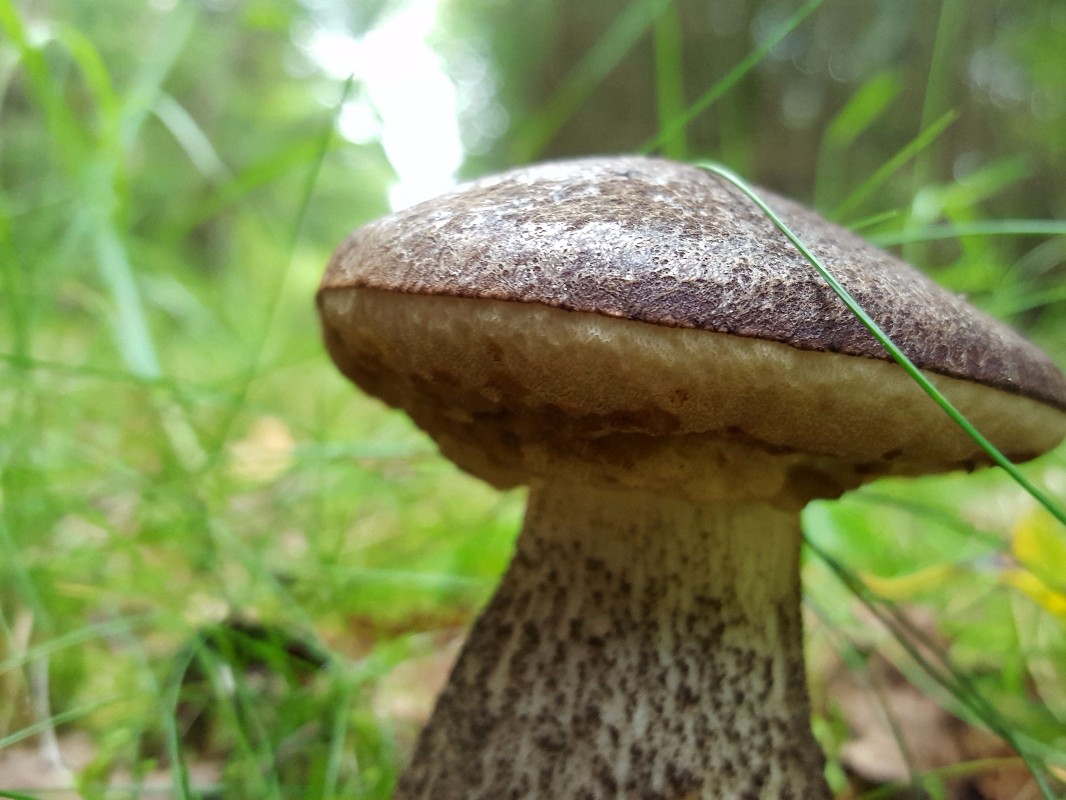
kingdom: Fungi
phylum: Basidiomycota
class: Agaricomycetes
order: Boletales
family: Boletaceae
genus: Leccinum
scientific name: Leccinum
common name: skælrørhat
